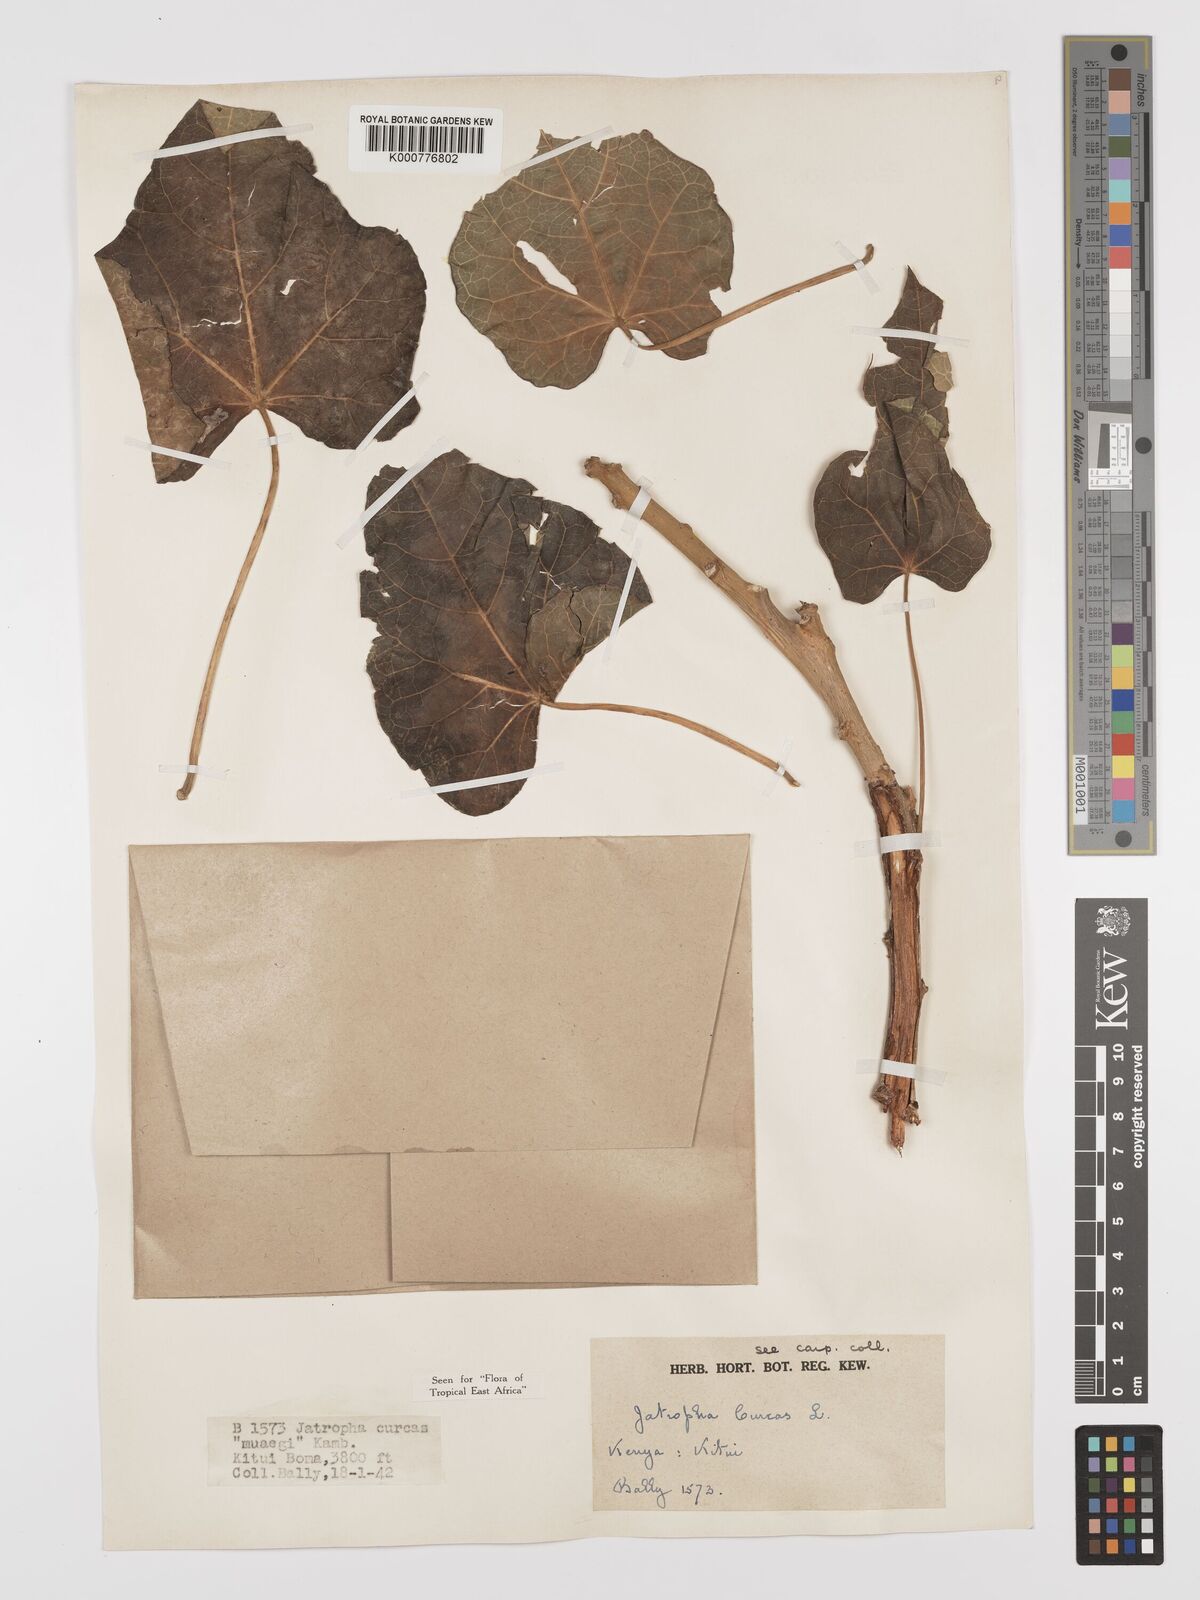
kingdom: Plantae
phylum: Tracheophyta
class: Magnoliopsida
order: Malpighiales
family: Euphorbiaceae
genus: Jatropha
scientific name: Jatropha curcas
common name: Barbados nut
